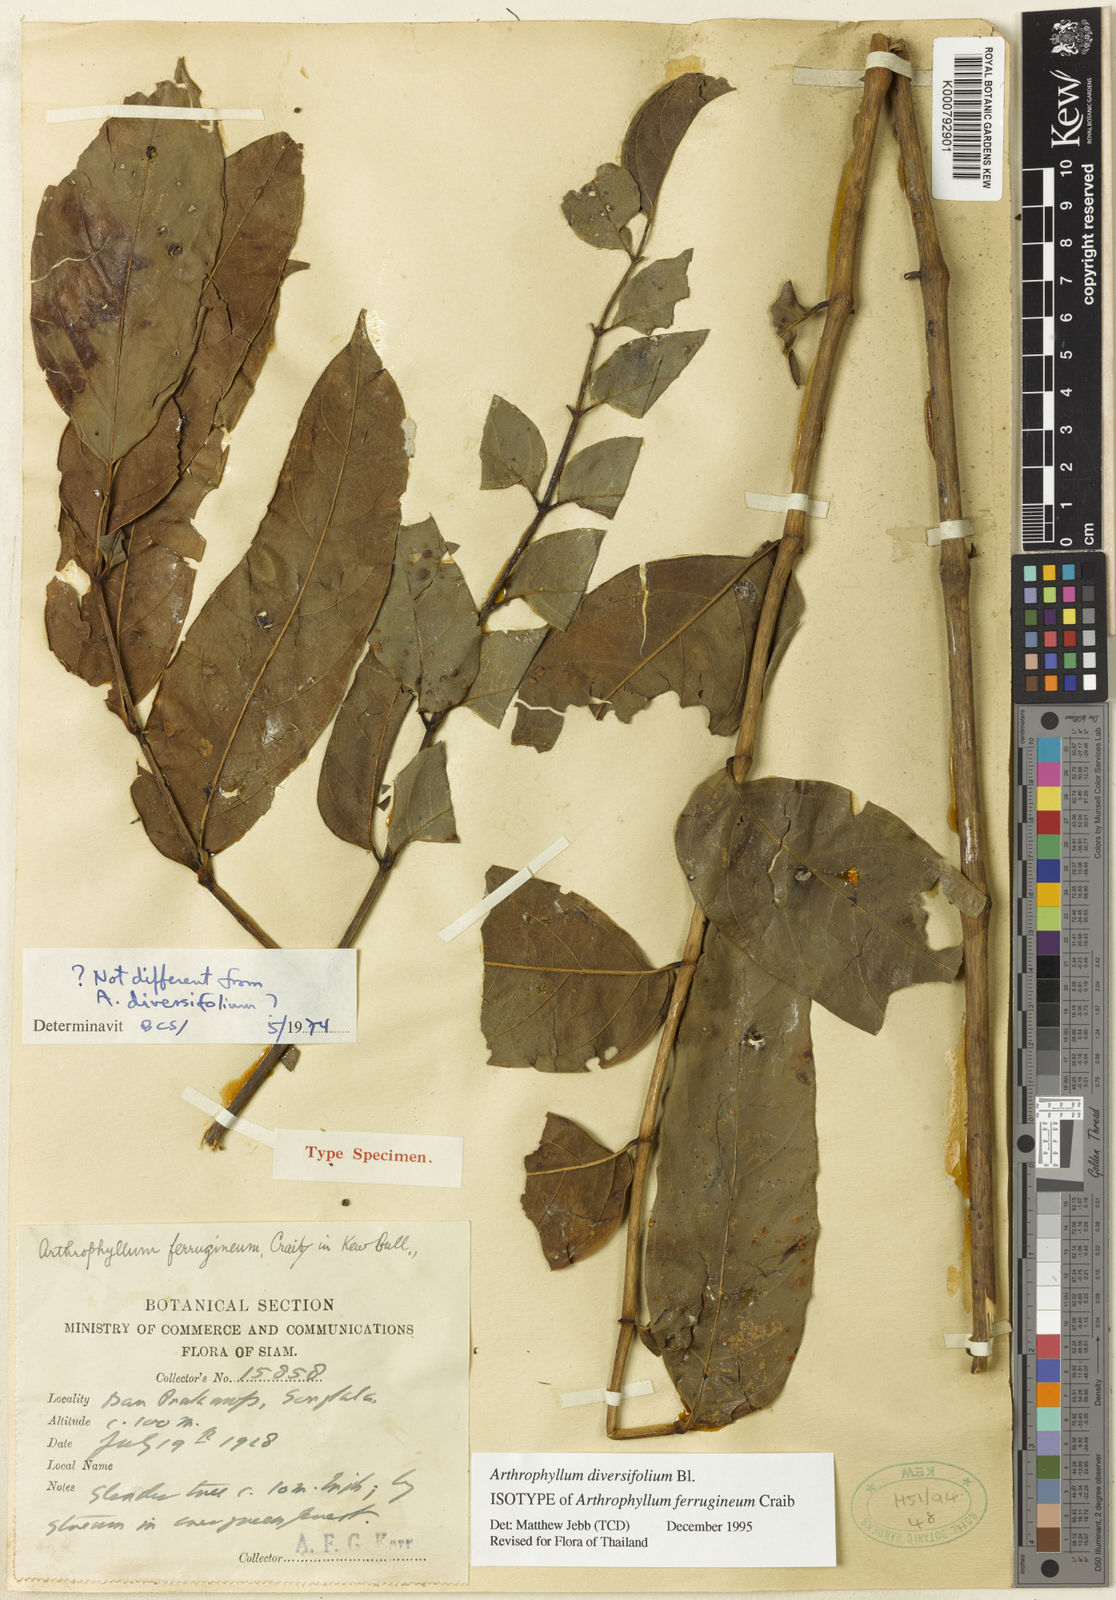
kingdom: Plantae
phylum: Tracheophyta
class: Magnoliopsida
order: Apiales
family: Araliaceae
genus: Polyscias
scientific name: Polyscias diversifolia
